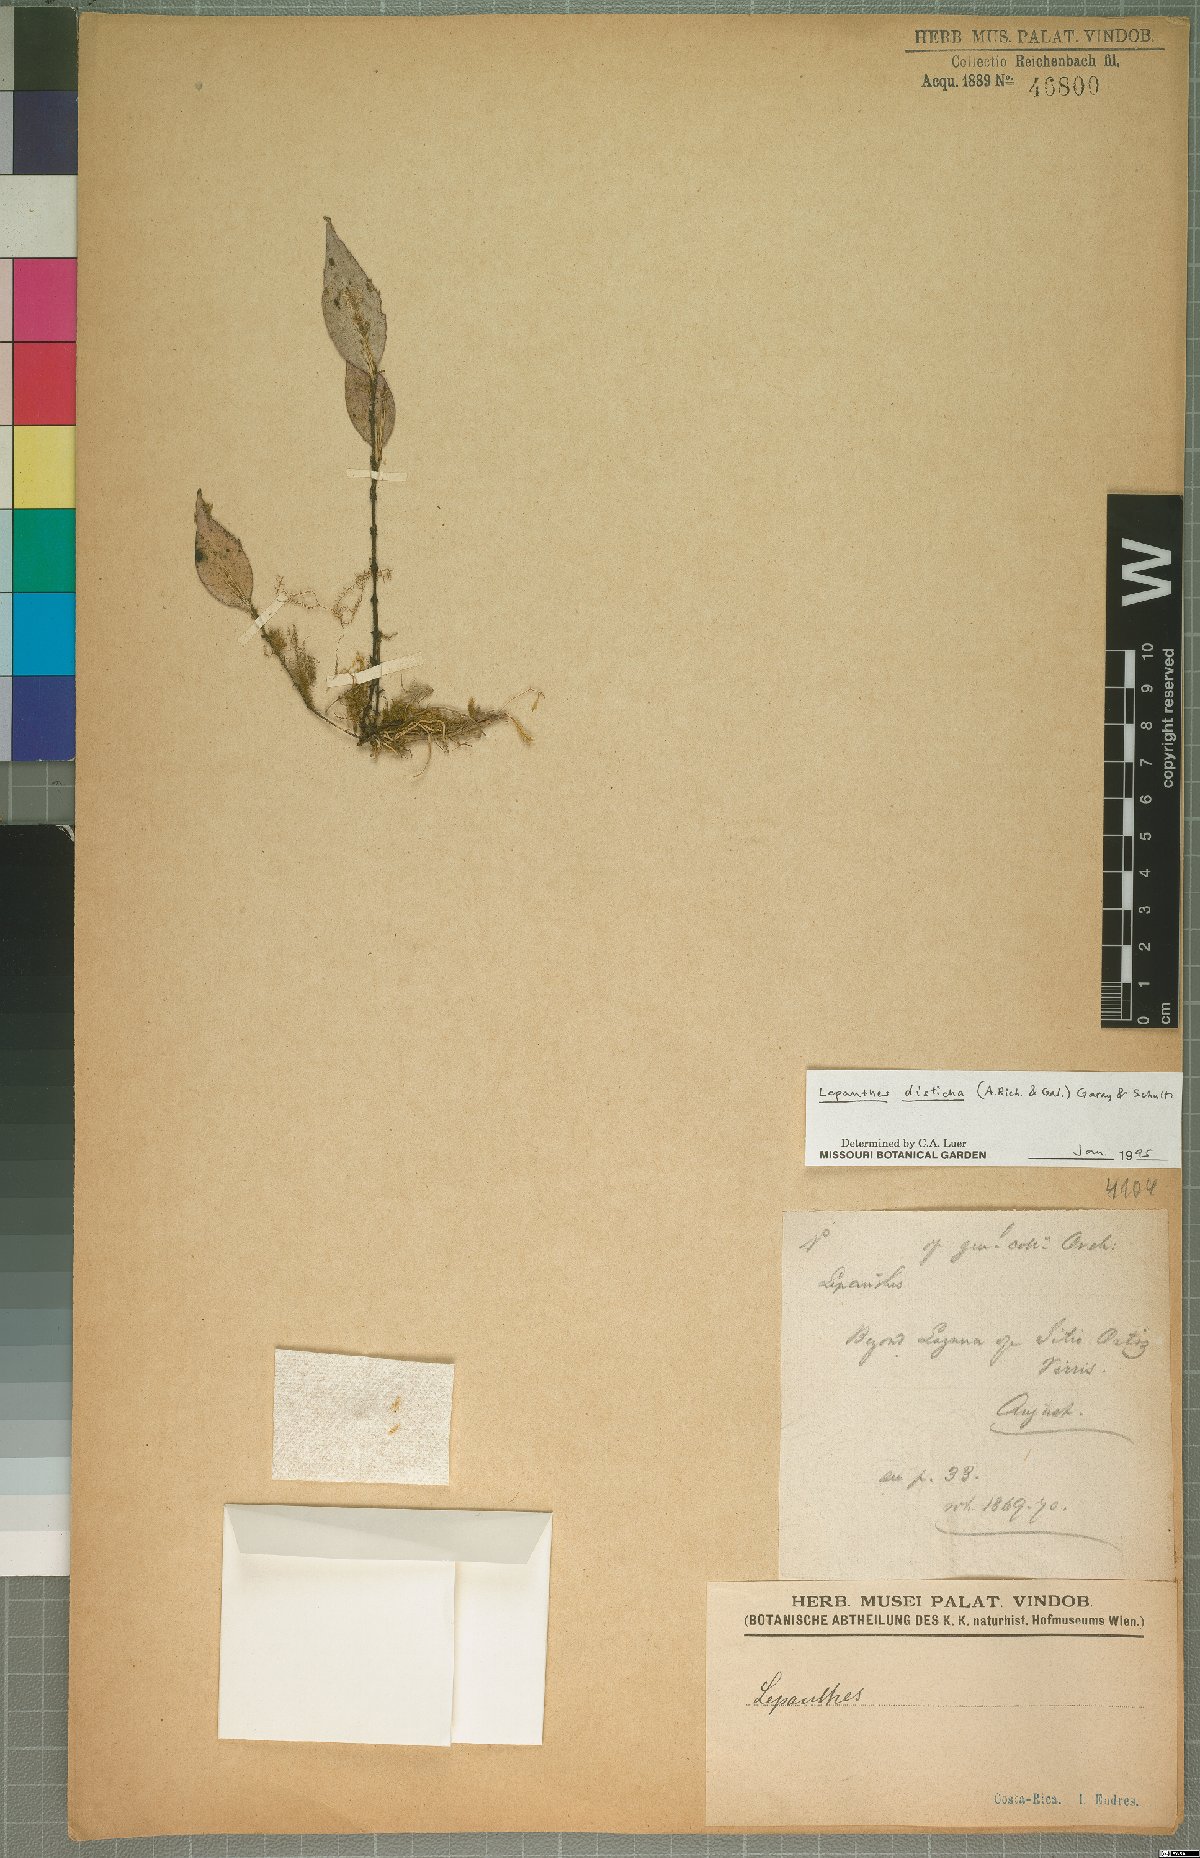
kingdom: Plantae
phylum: Tracheophyta
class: Liliopsida
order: Asparagales
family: Orchidaceae
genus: Lepanthes
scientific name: Lepanthes disticha
